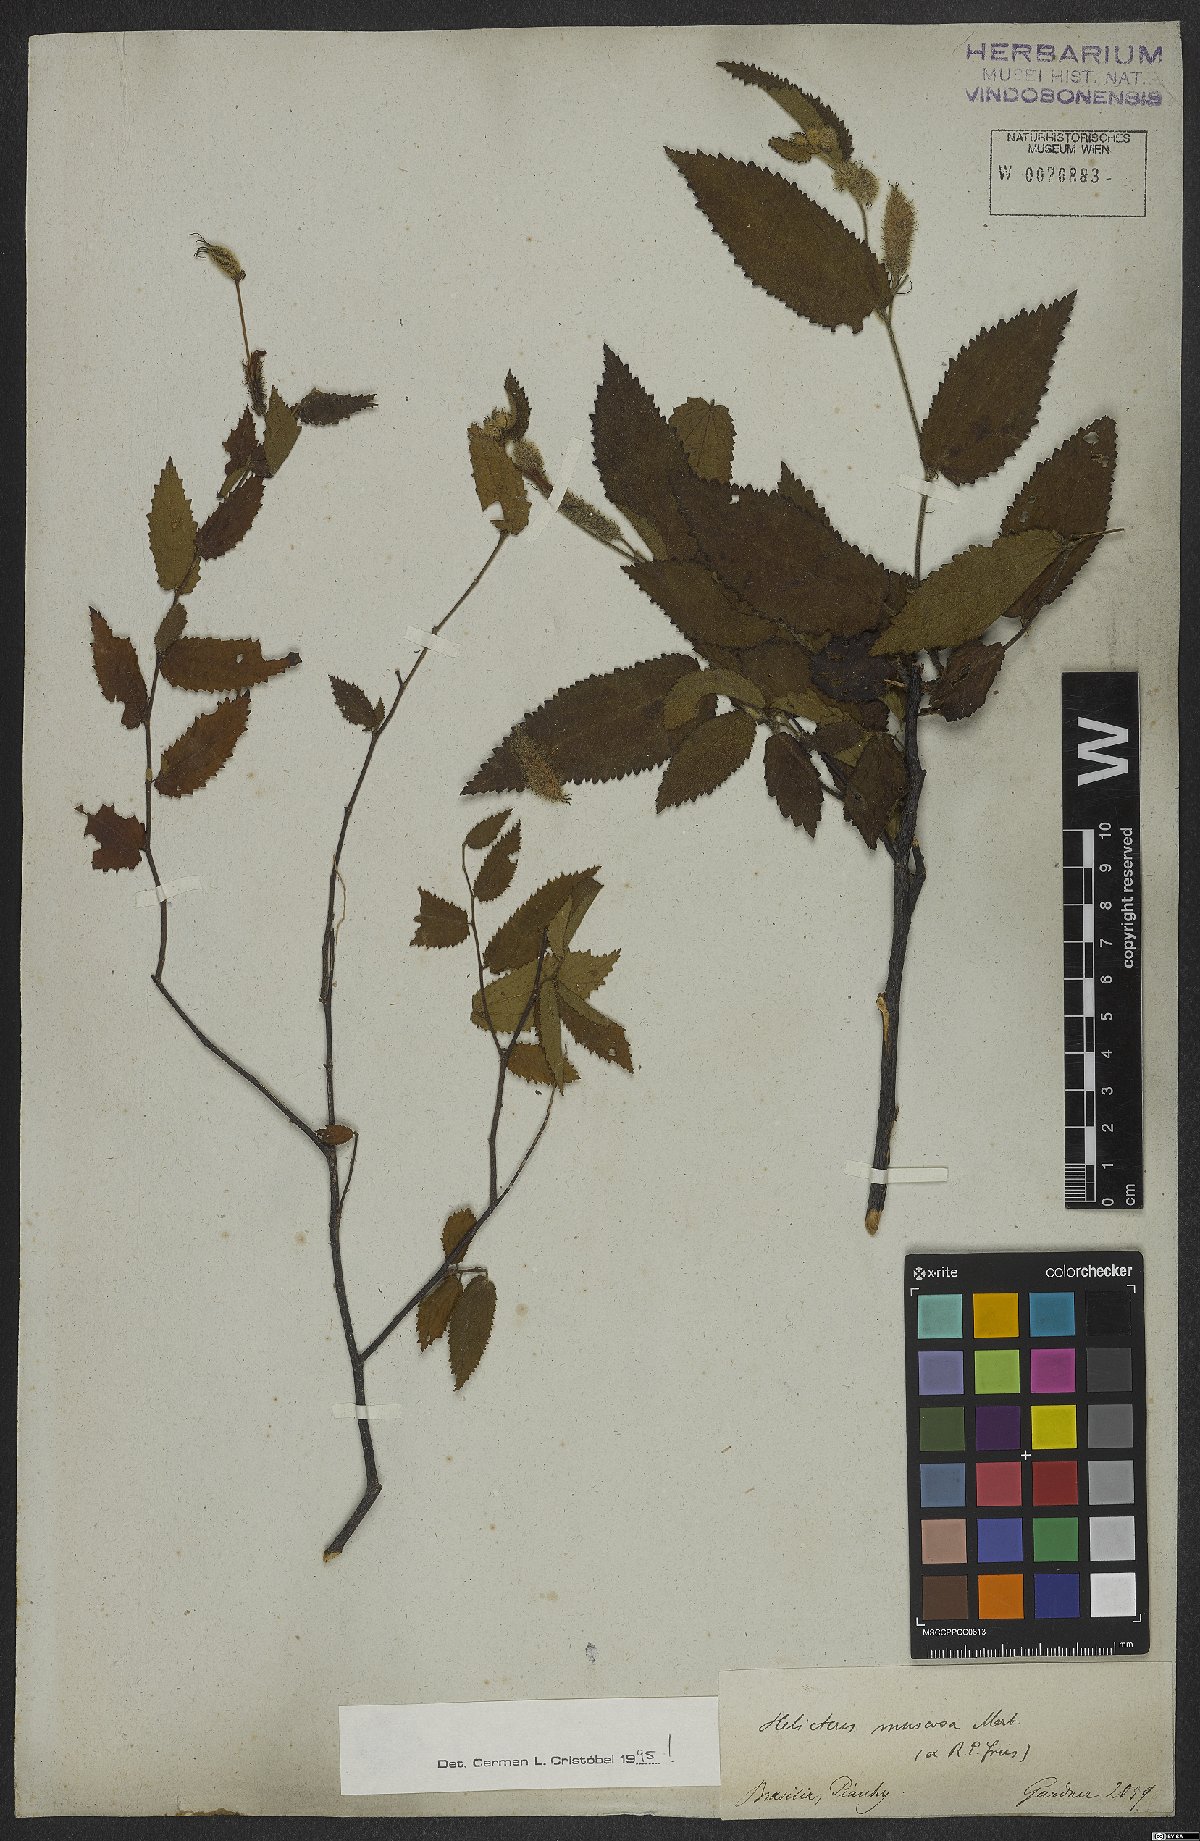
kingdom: Plantae
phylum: Tracheophyta
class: Magnoliopsida
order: Malvales
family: Malvaceae
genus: Helicteres
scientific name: Helicteres muscosa
